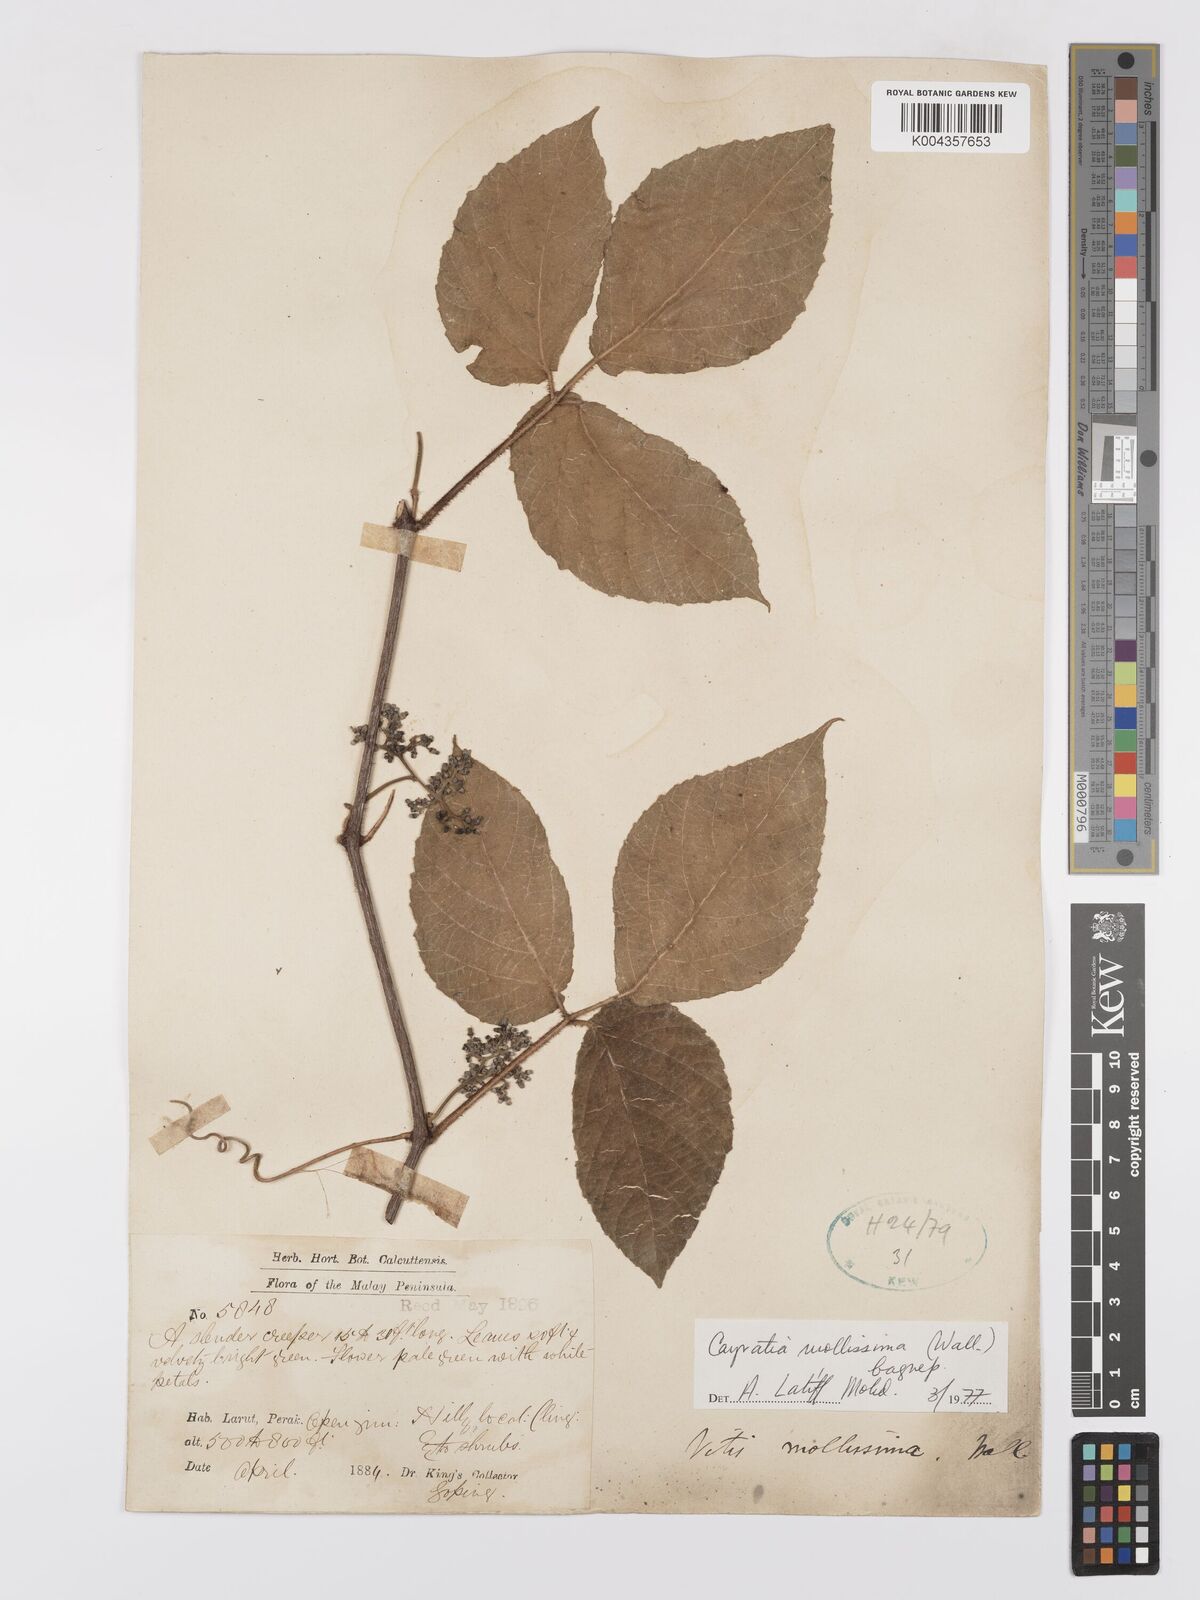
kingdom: Plantae
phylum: Tracheophyta
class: Magnoliopsida
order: Vitales
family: Vitaceae
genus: Cayratia
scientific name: Cayratia mollissima
